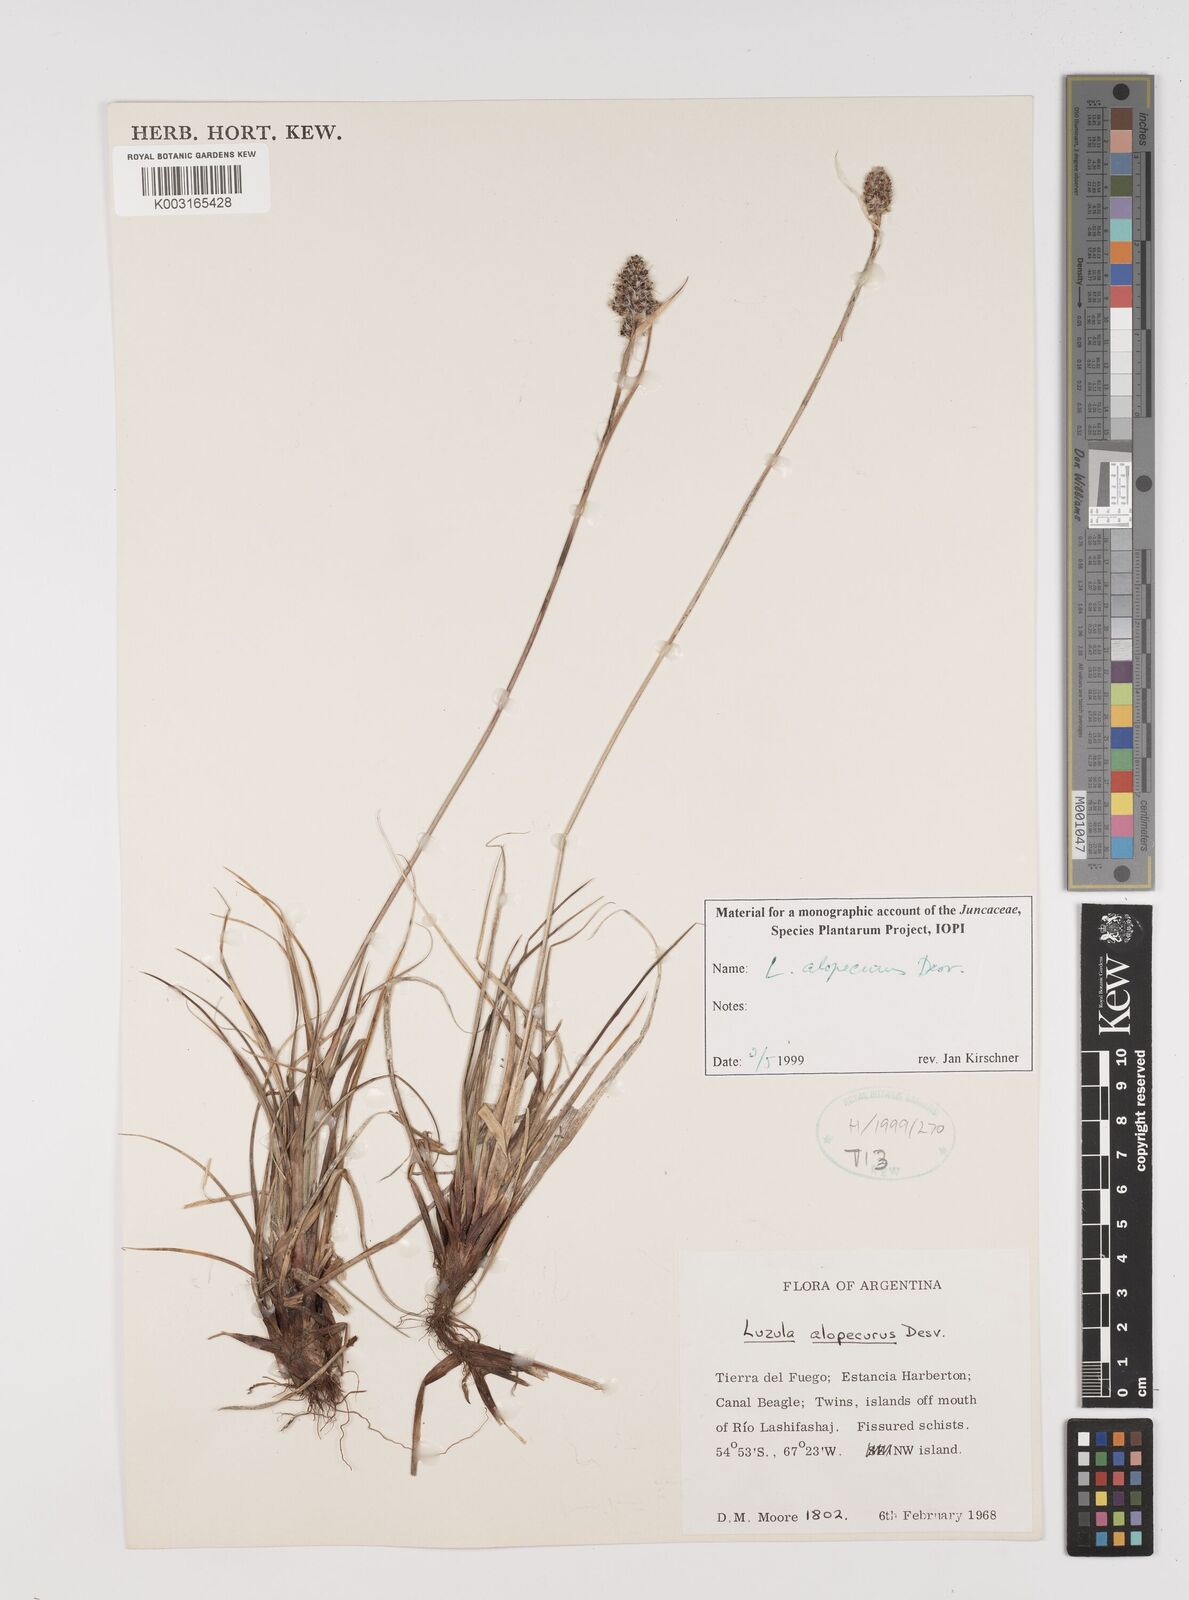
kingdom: Plantae
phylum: Tracheophyta
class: Liliopsida
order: Poales
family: Juncaceae
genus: Luzula
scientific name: Luzula alopecurus
